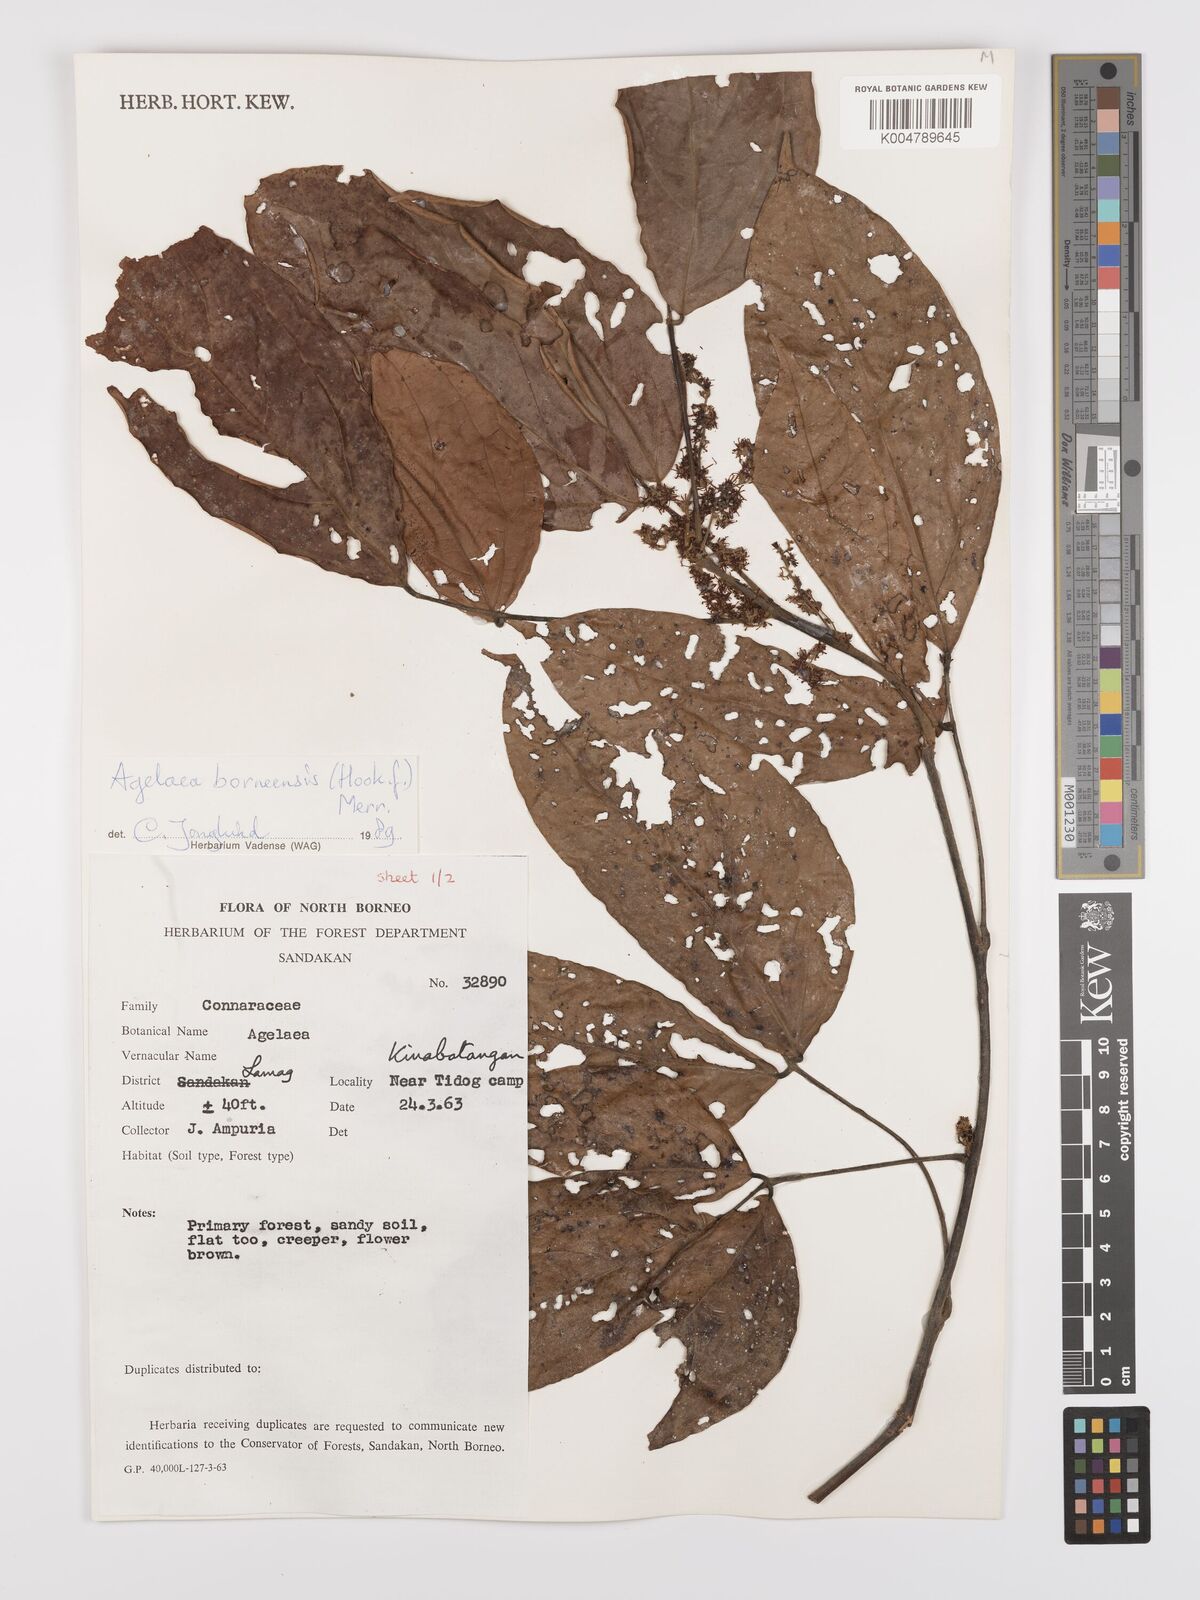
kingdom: Plantae
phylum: Tracheophyta
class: Magnoliopsida
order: Oxalidales
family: Connaraceae
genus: Agelaea
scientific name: Agelaea borneensis
